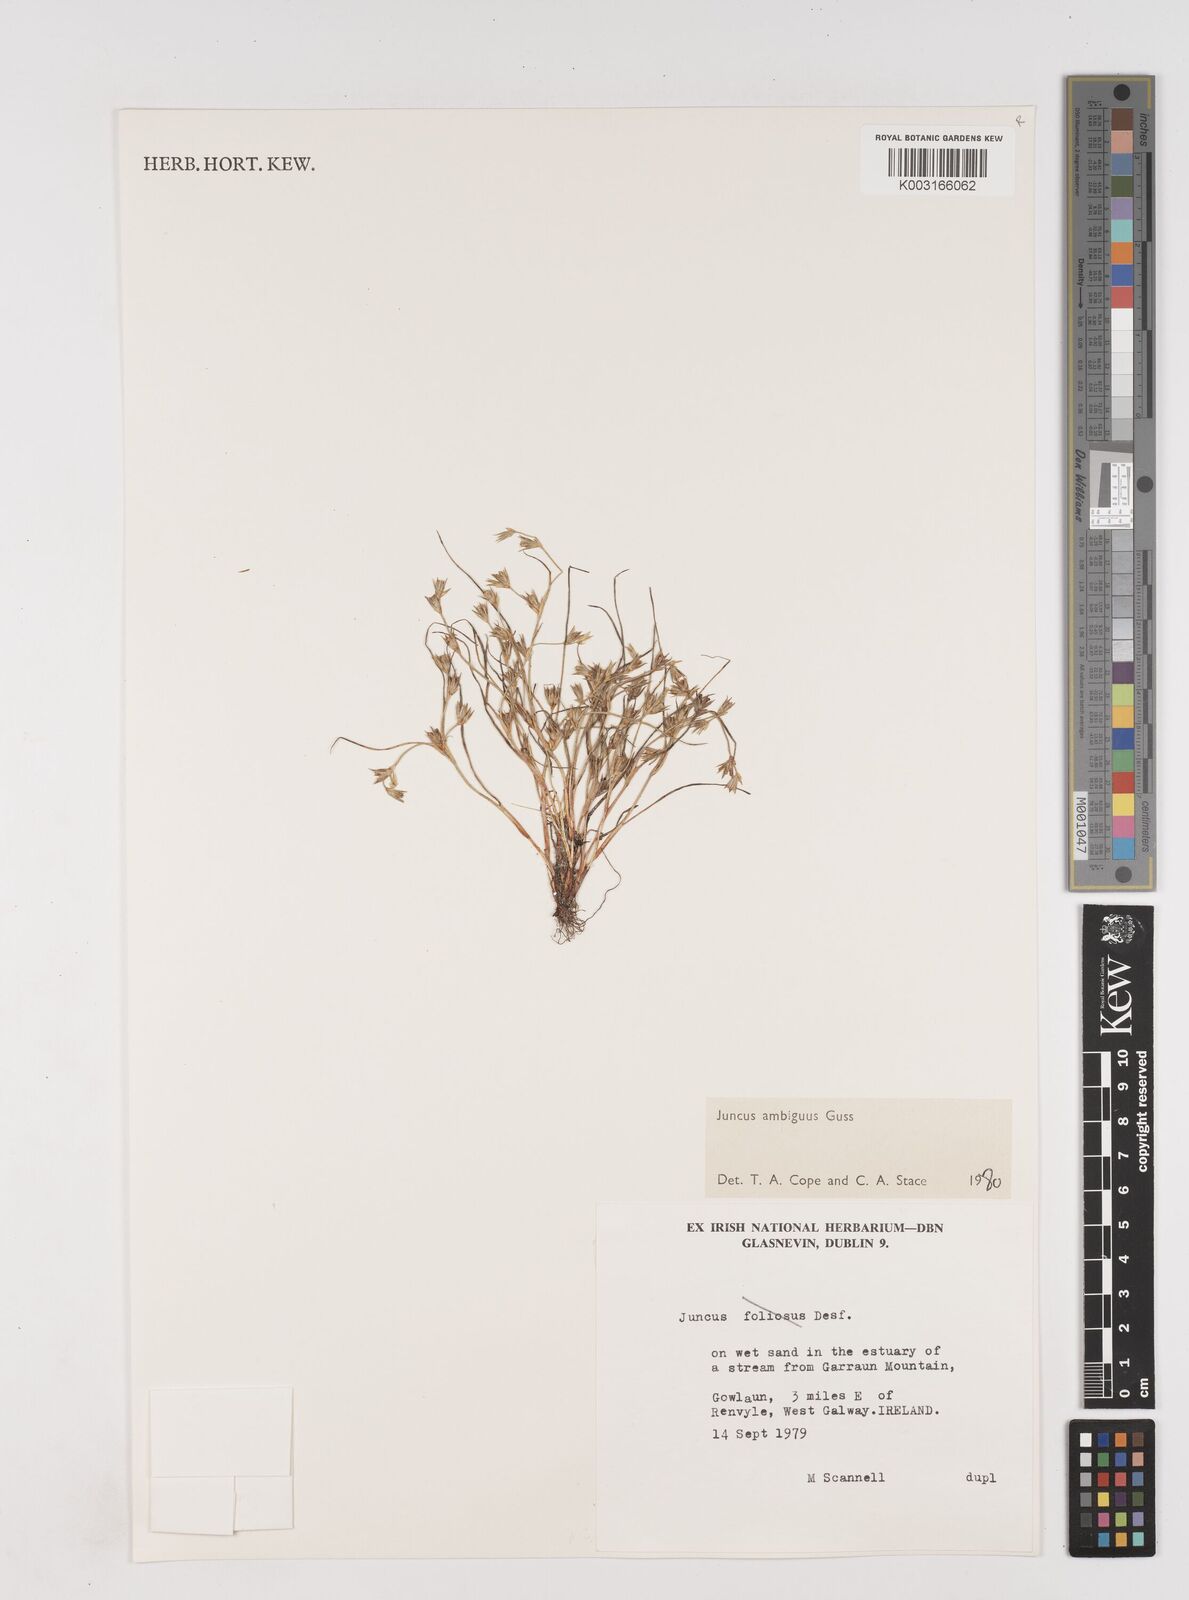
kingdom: Plantae
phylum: Tracheophyta
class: Liliopsida
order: Poales
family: Juncaceae
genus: Juncus
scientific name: Juncus hybridus
